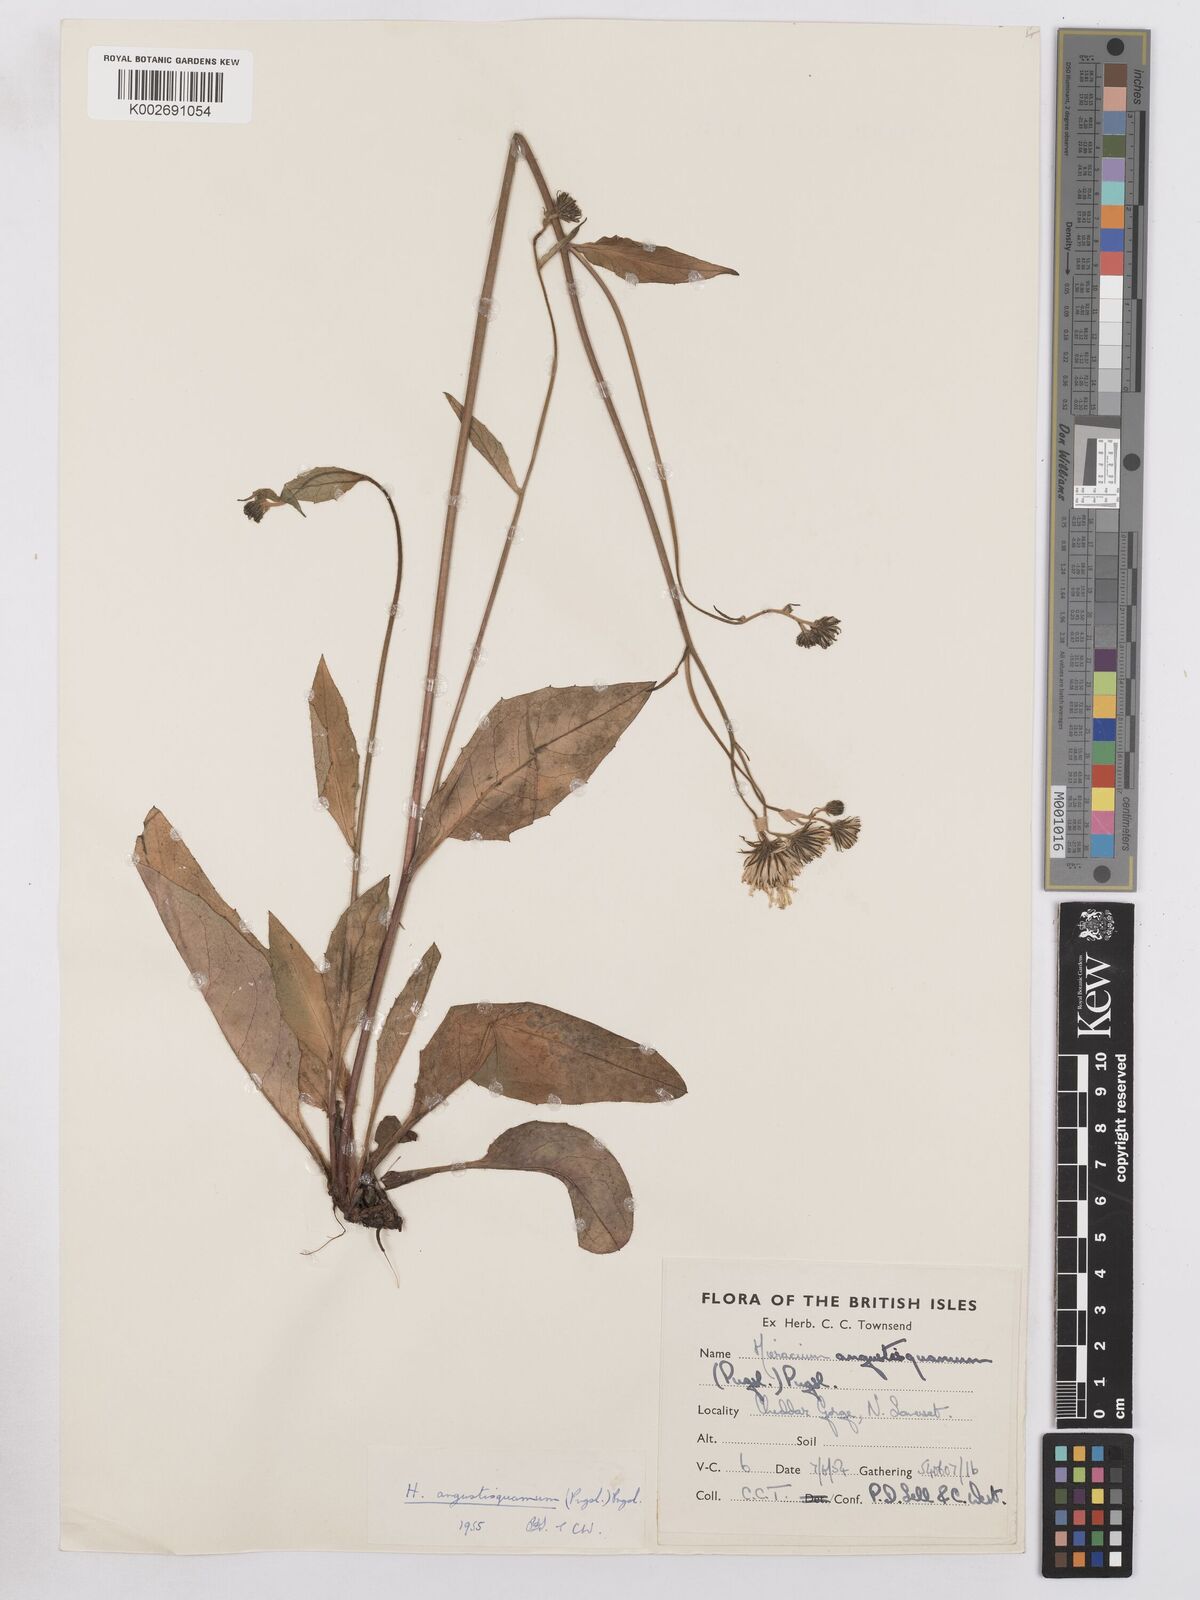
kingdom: Plantae
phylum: Tracheophyta
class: Magnoliopsida
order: Asterales
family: Asteraceae
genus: Hieracium
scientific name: Hieracium angustisquamum
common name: Red-tinted hawkweed
